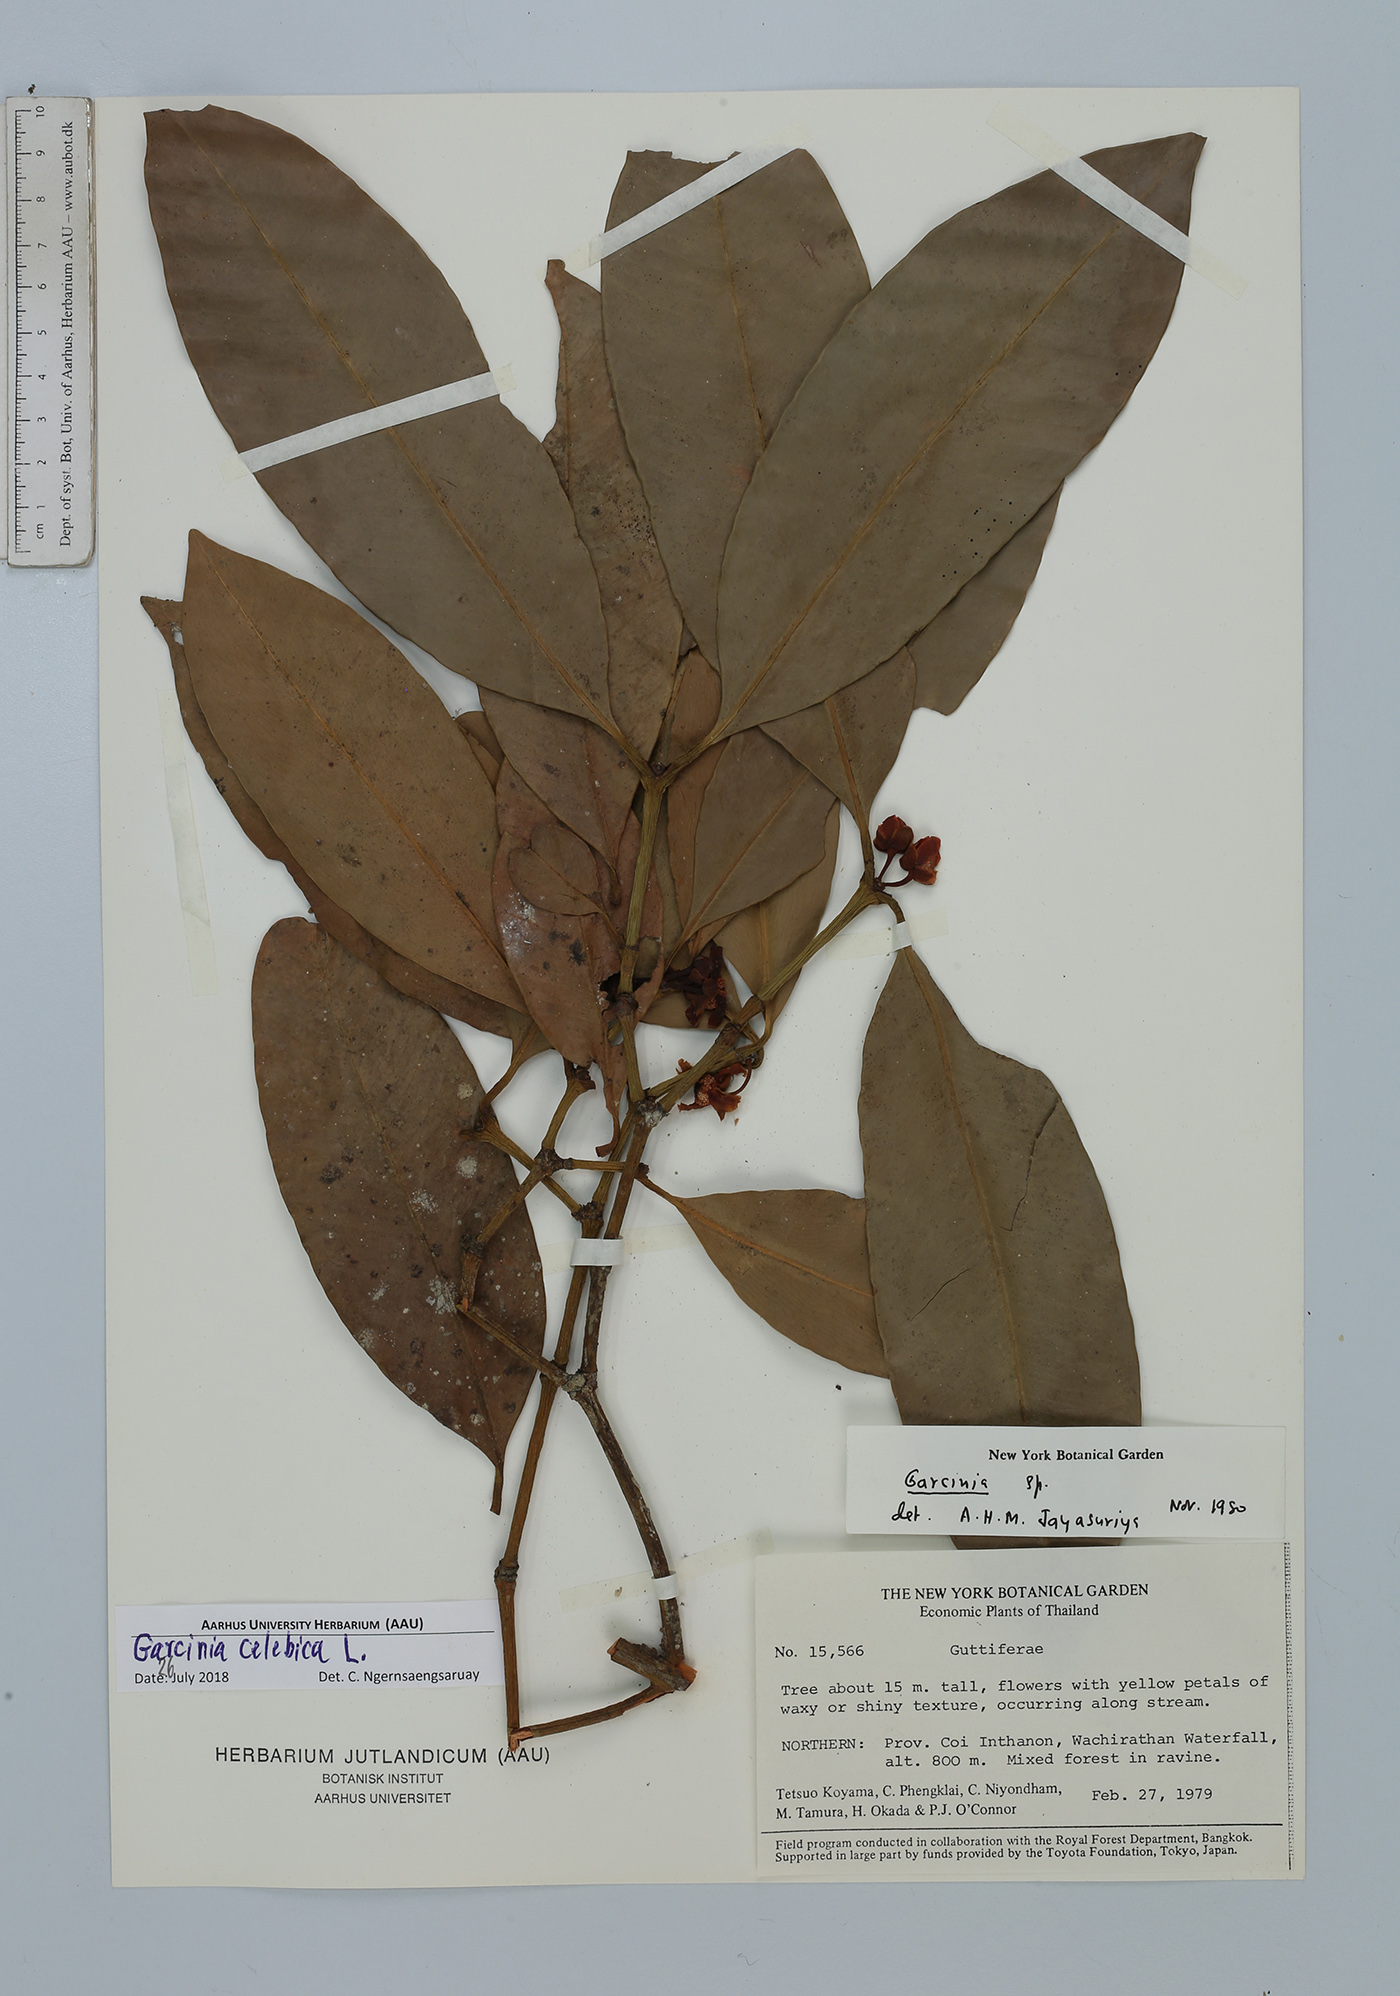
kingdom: Plantae
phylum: Tracheophyta
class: Magnoliopsida
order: Malpighiales
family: Clusiaceae
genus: Garcinia
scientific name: Garcinia celebica
